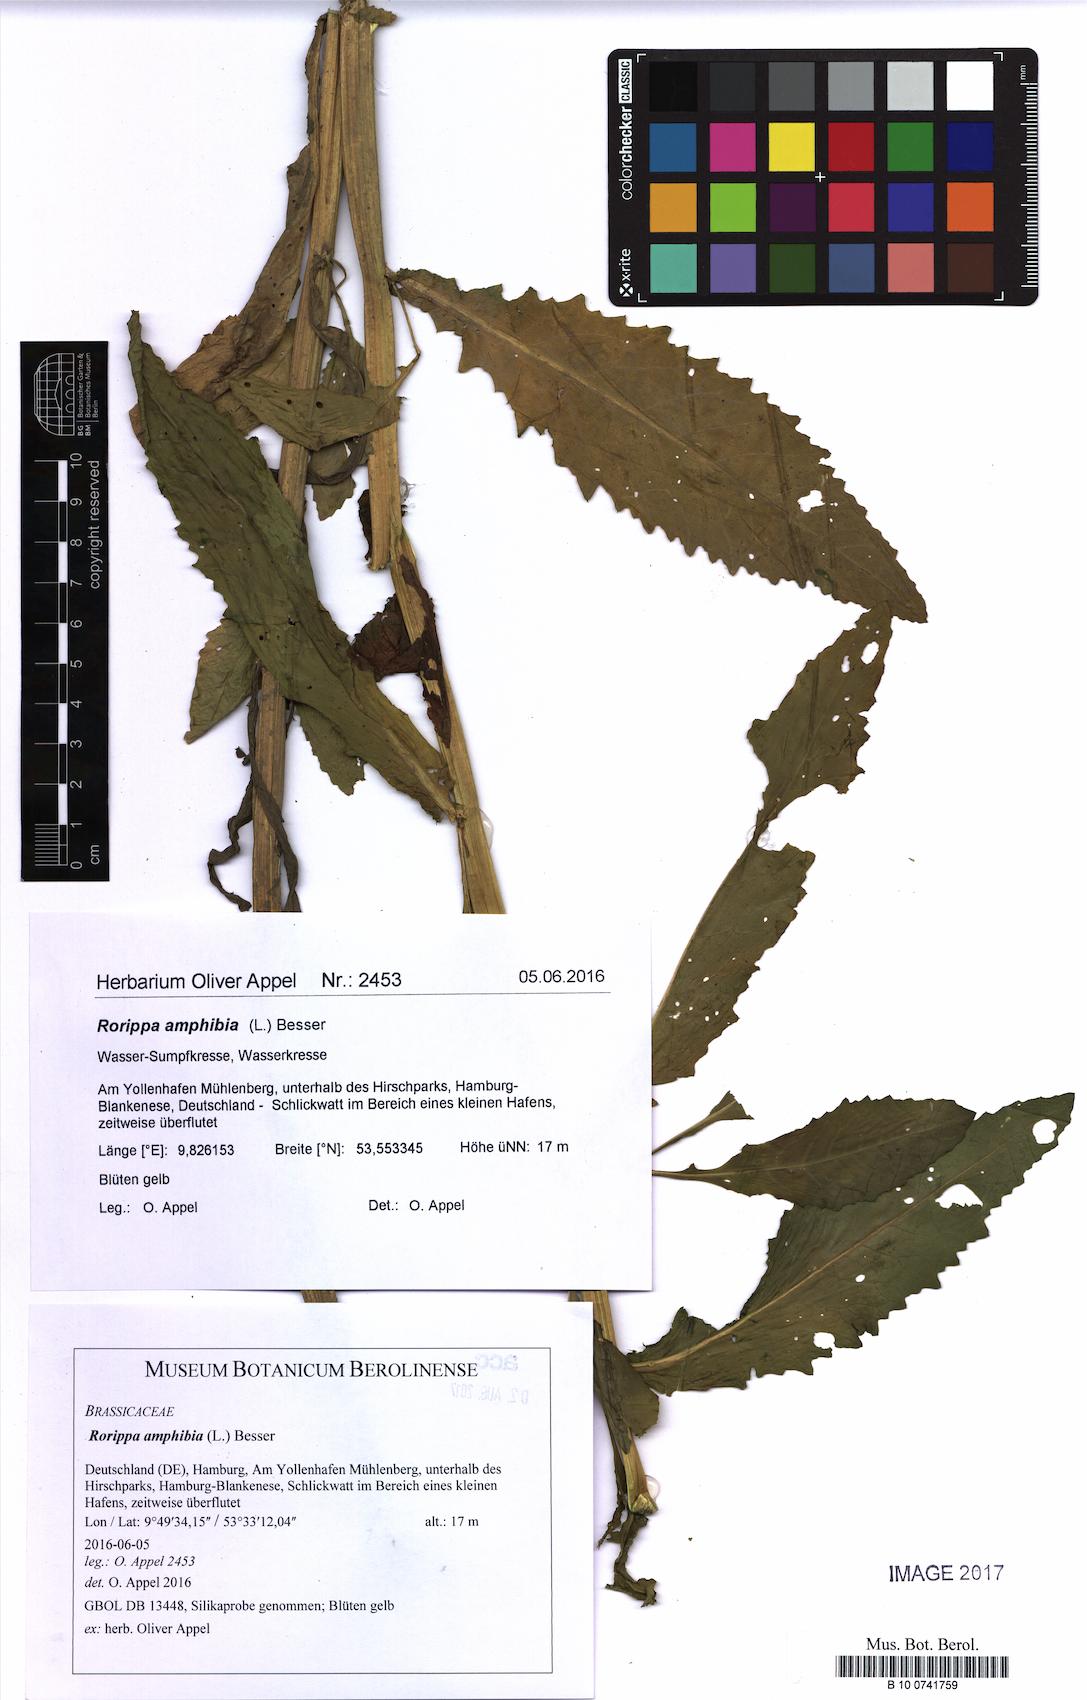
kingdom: Plantae
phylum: Tracheophyta
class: Magnoliopsida
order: Brassicales
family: Brassicaceae
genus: Rorippa
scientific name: Rorippa amphibia
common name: Great yellow-cress
